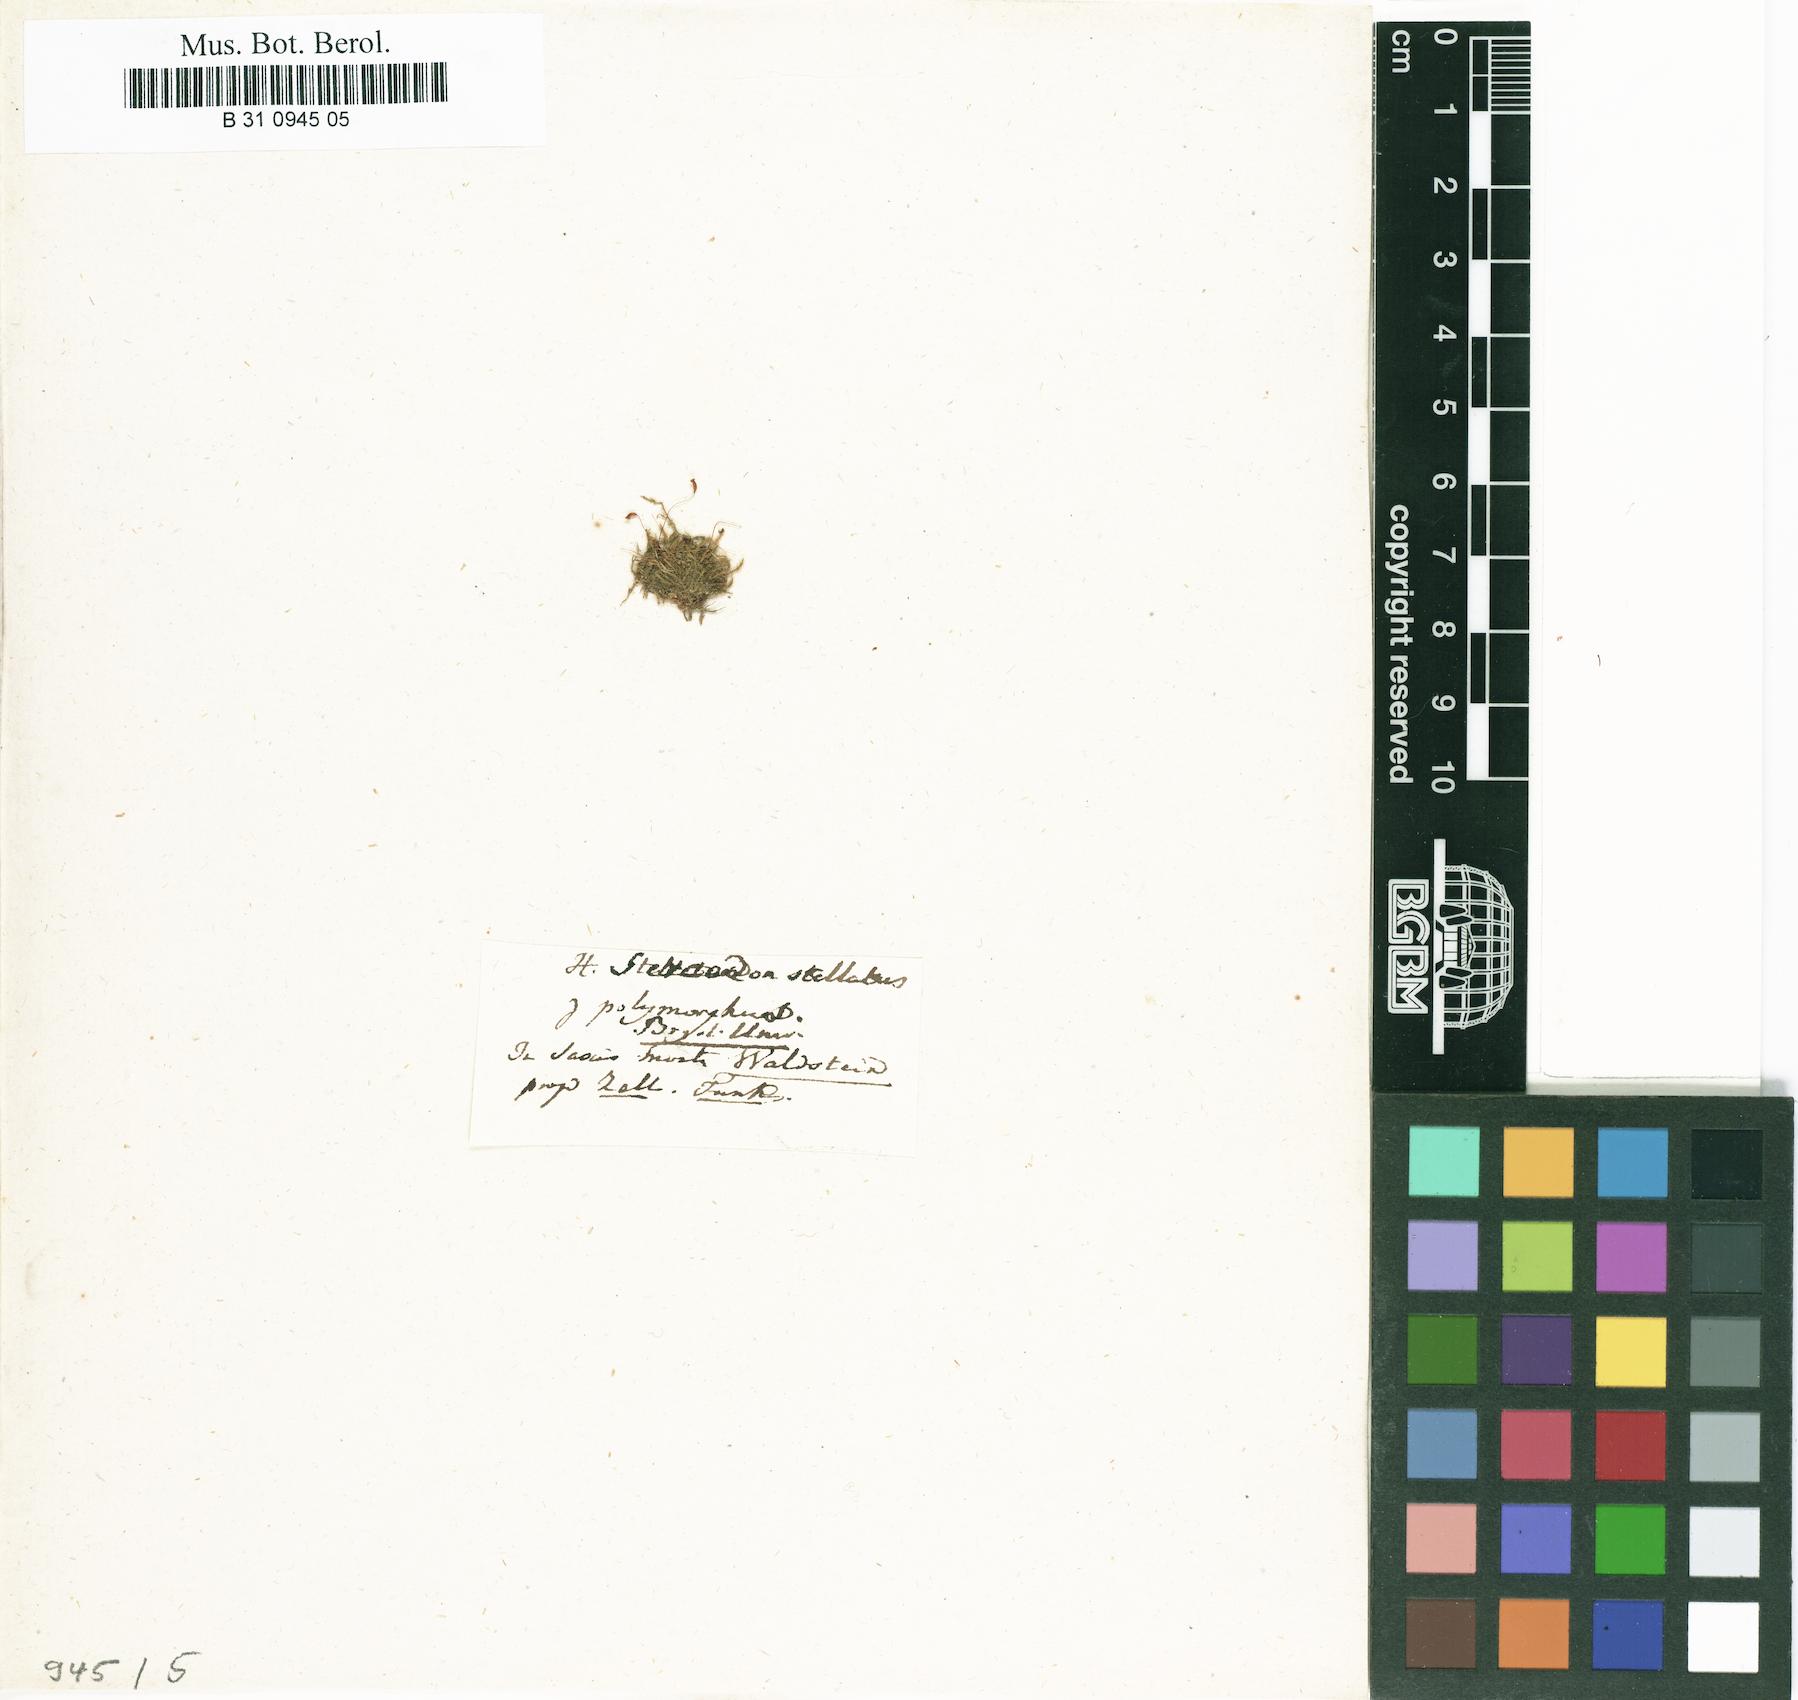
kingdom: Plantae
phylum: Bryophyta
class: Bryopsida
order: Hypnales
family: Amblystegiaceae
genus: Campylium
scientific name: Campylium stellatum
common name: Yellow starry fen moss
